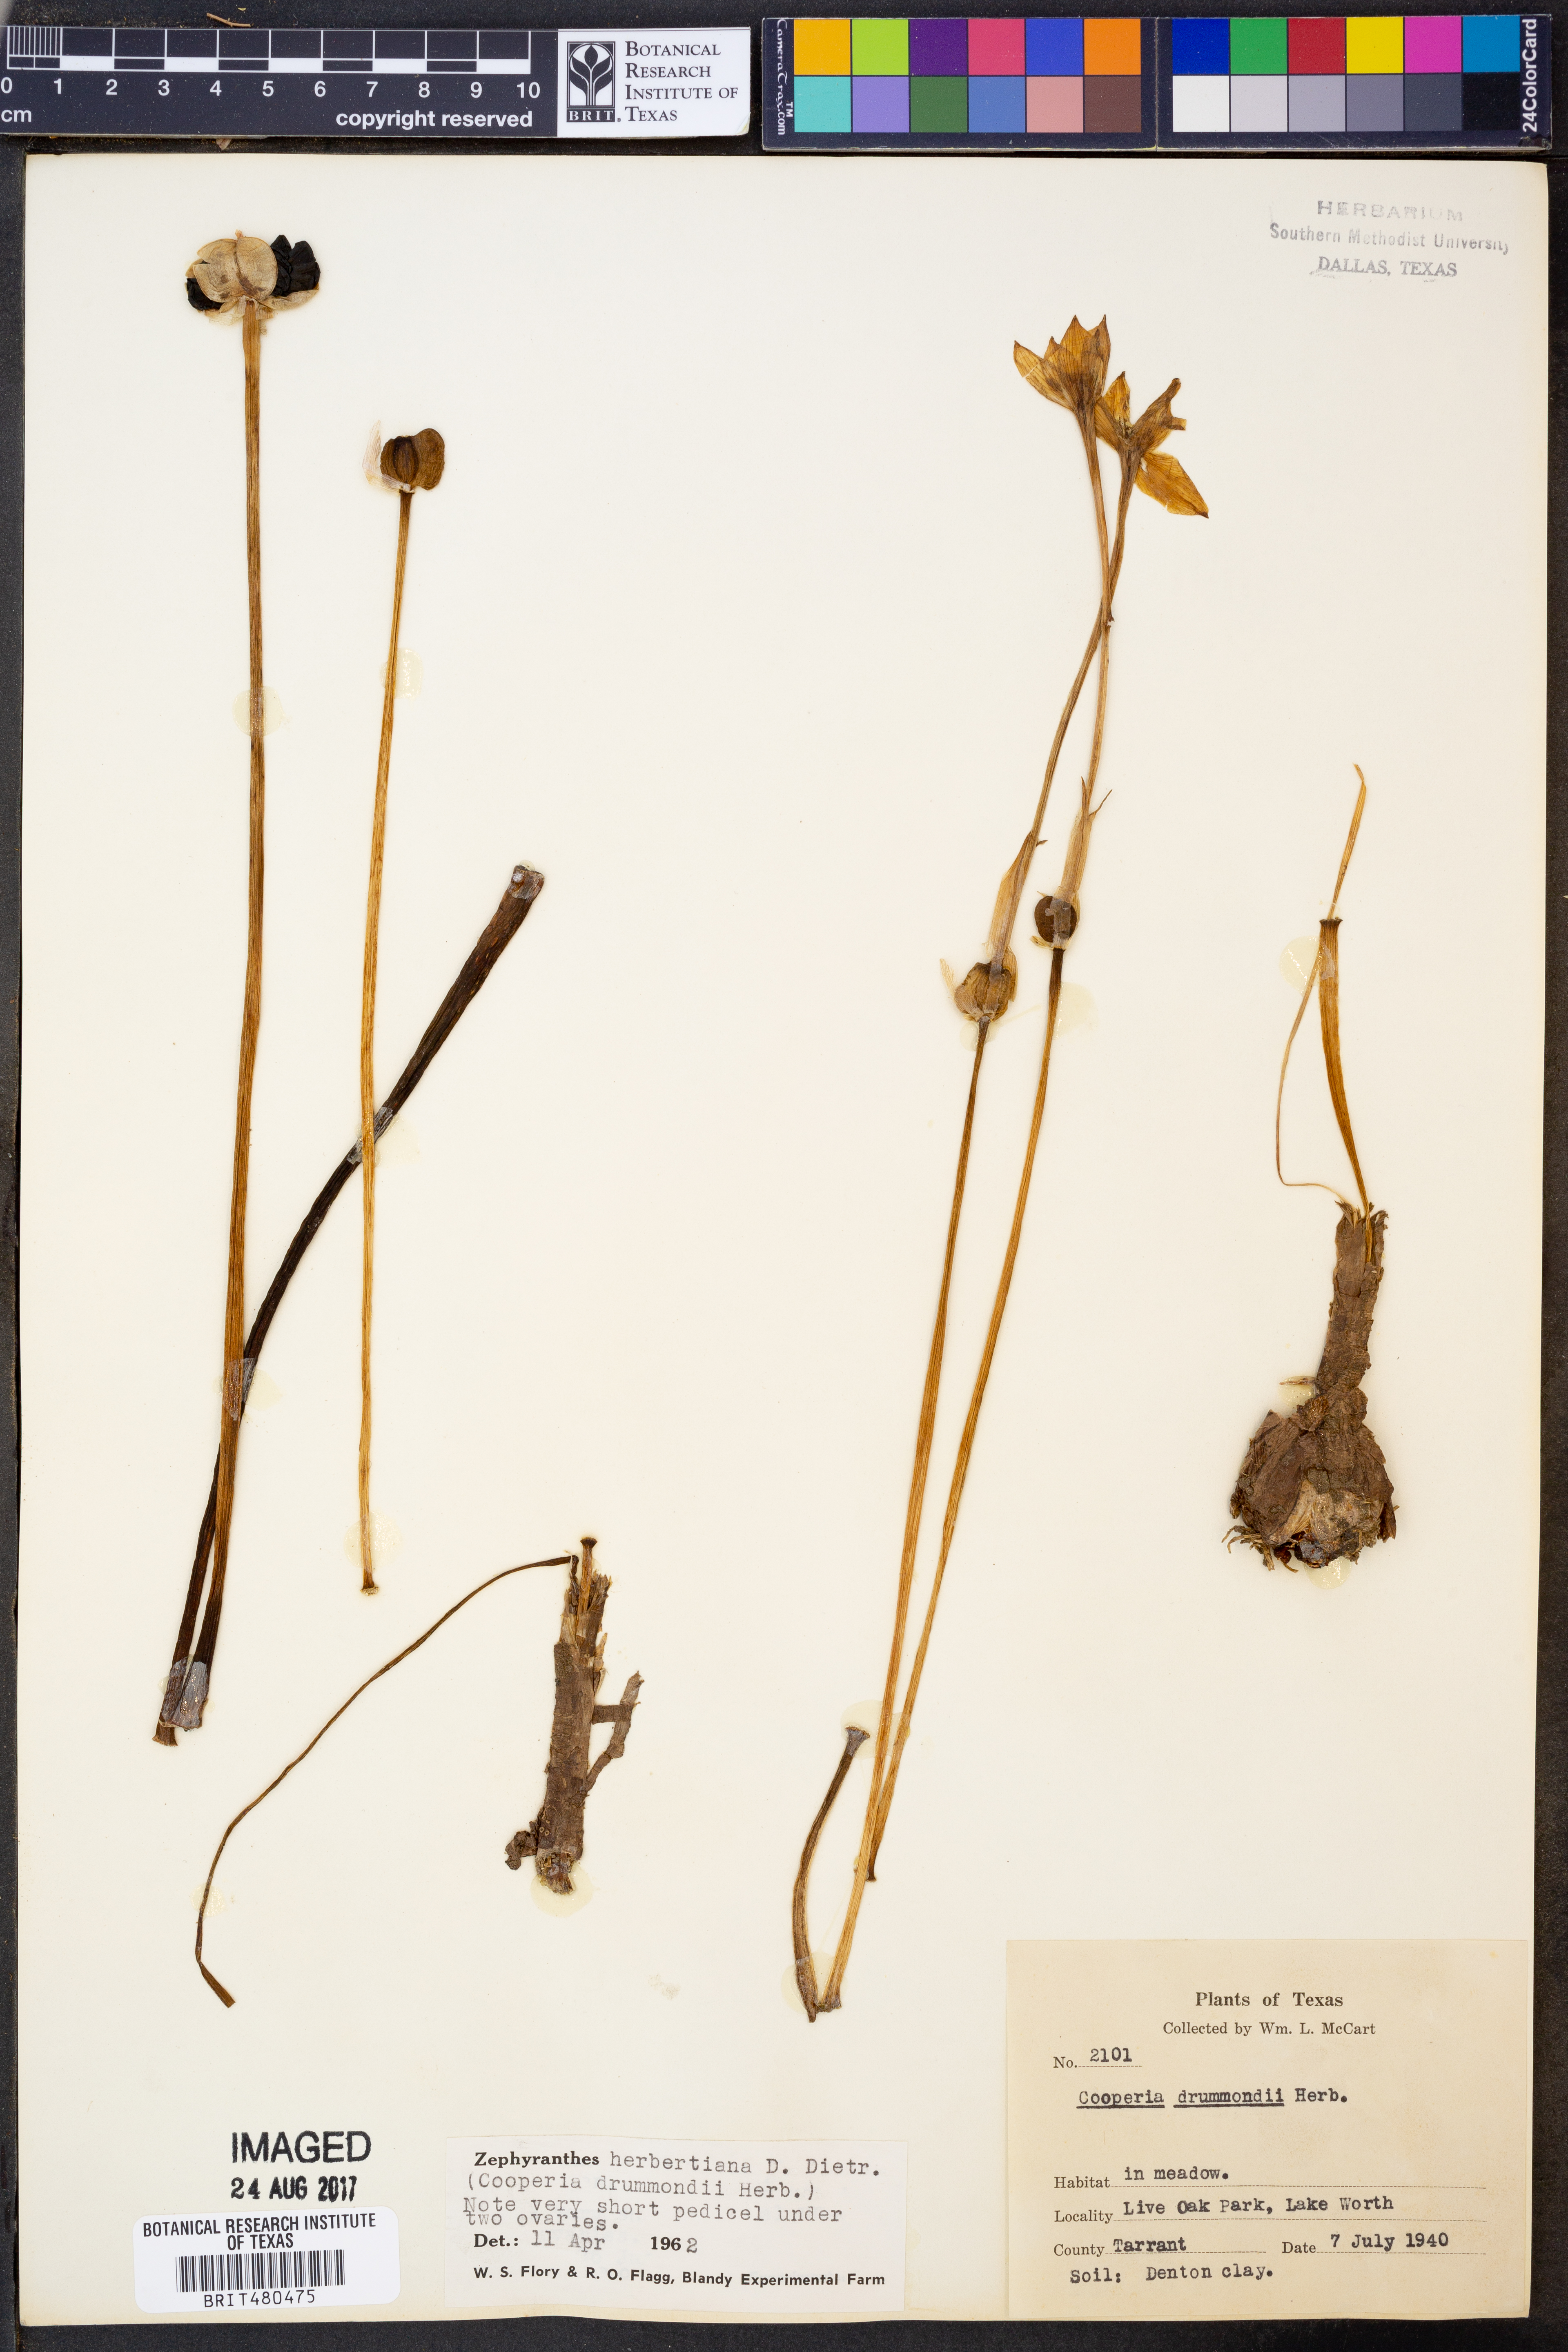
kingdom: Plantae
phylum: Tracheophyta
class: Liliopsida
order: Asparagales
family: Amaryllidaceae
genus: Zephyranthes
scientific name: Zephyranthes chlorosolen
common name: Evening rain-lily
